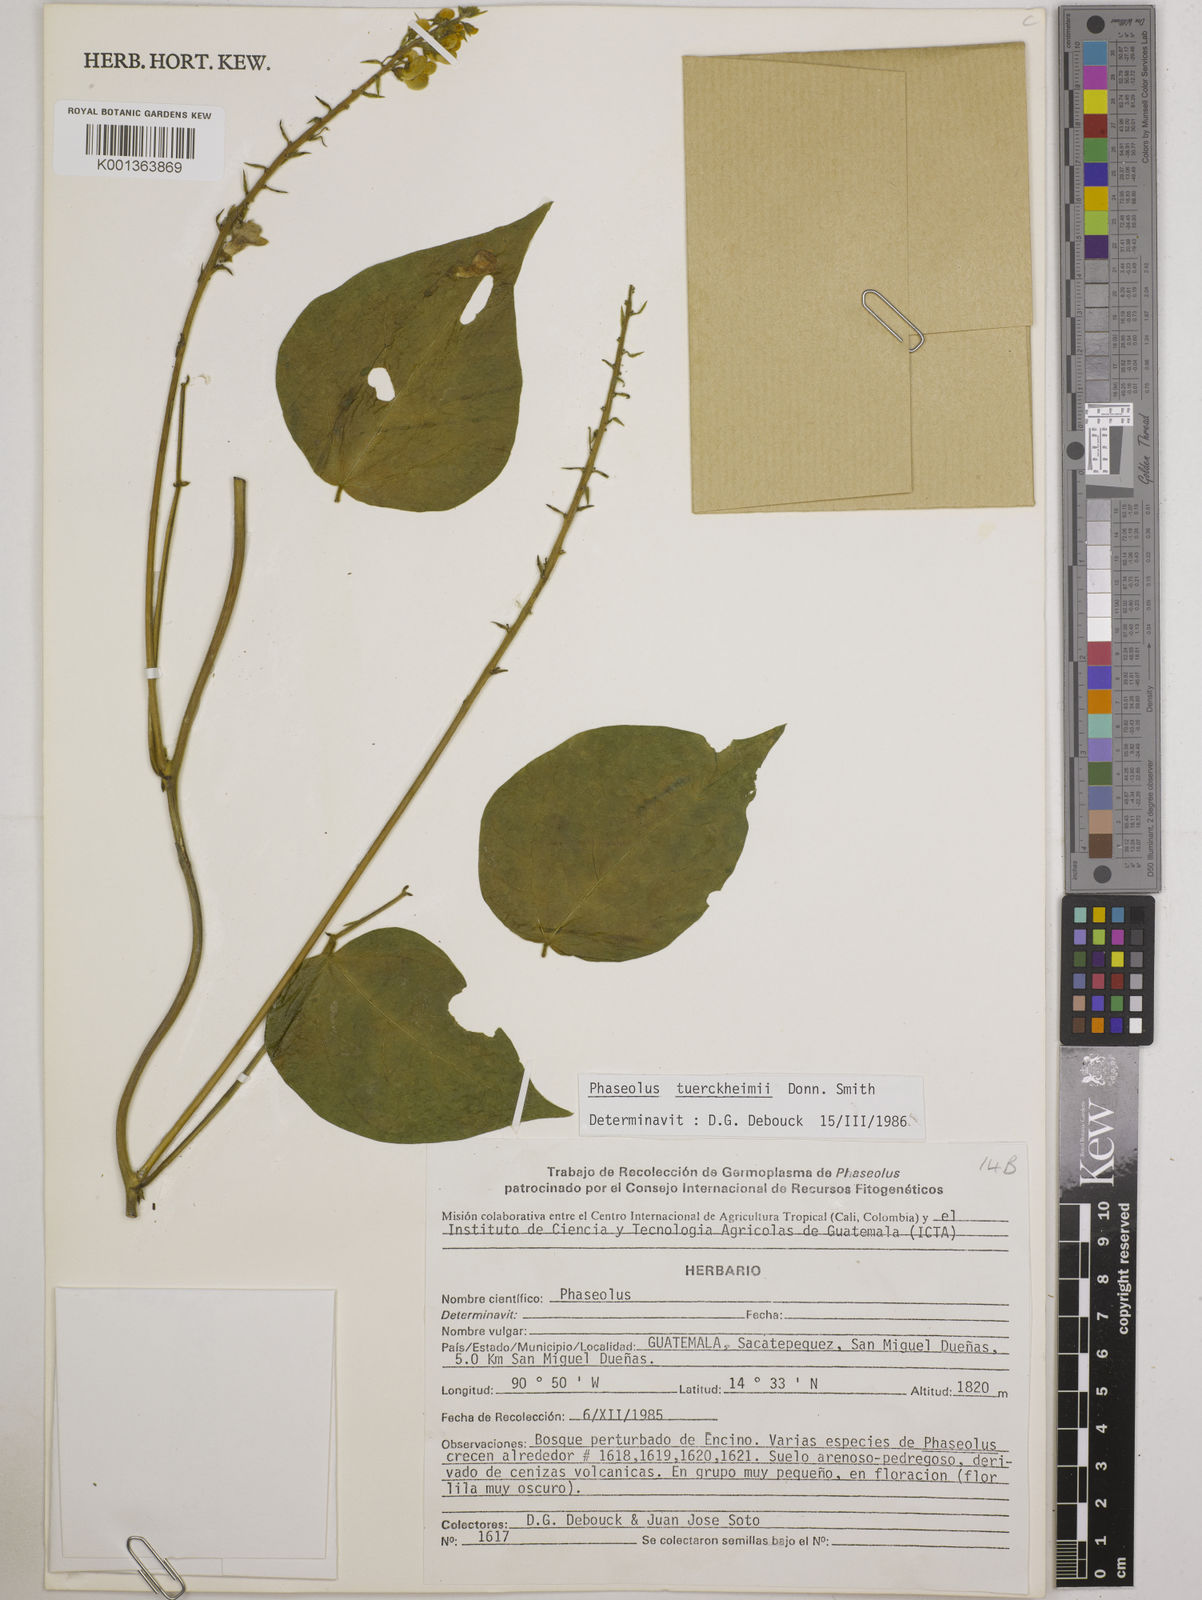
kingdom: Plantae
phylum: Tracheophyta
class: Magnoliopsida
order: Fabales
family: Fabaceae
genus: Phaseolus
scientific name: Phaseolus tuerckheimii
